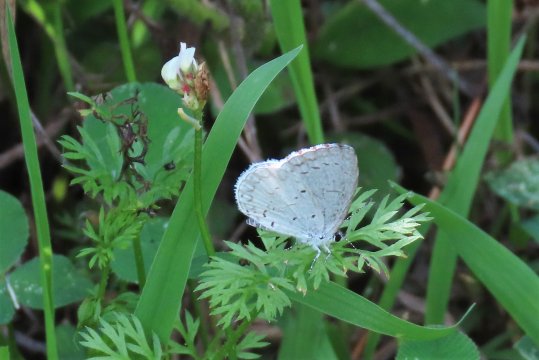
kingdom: Animalia
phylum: Arthropoda
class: Insecta
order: Lepidoptera
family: Lycaenidae
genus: Cyaniris
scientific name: Cyaniris neglecta
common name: Summer Azure
